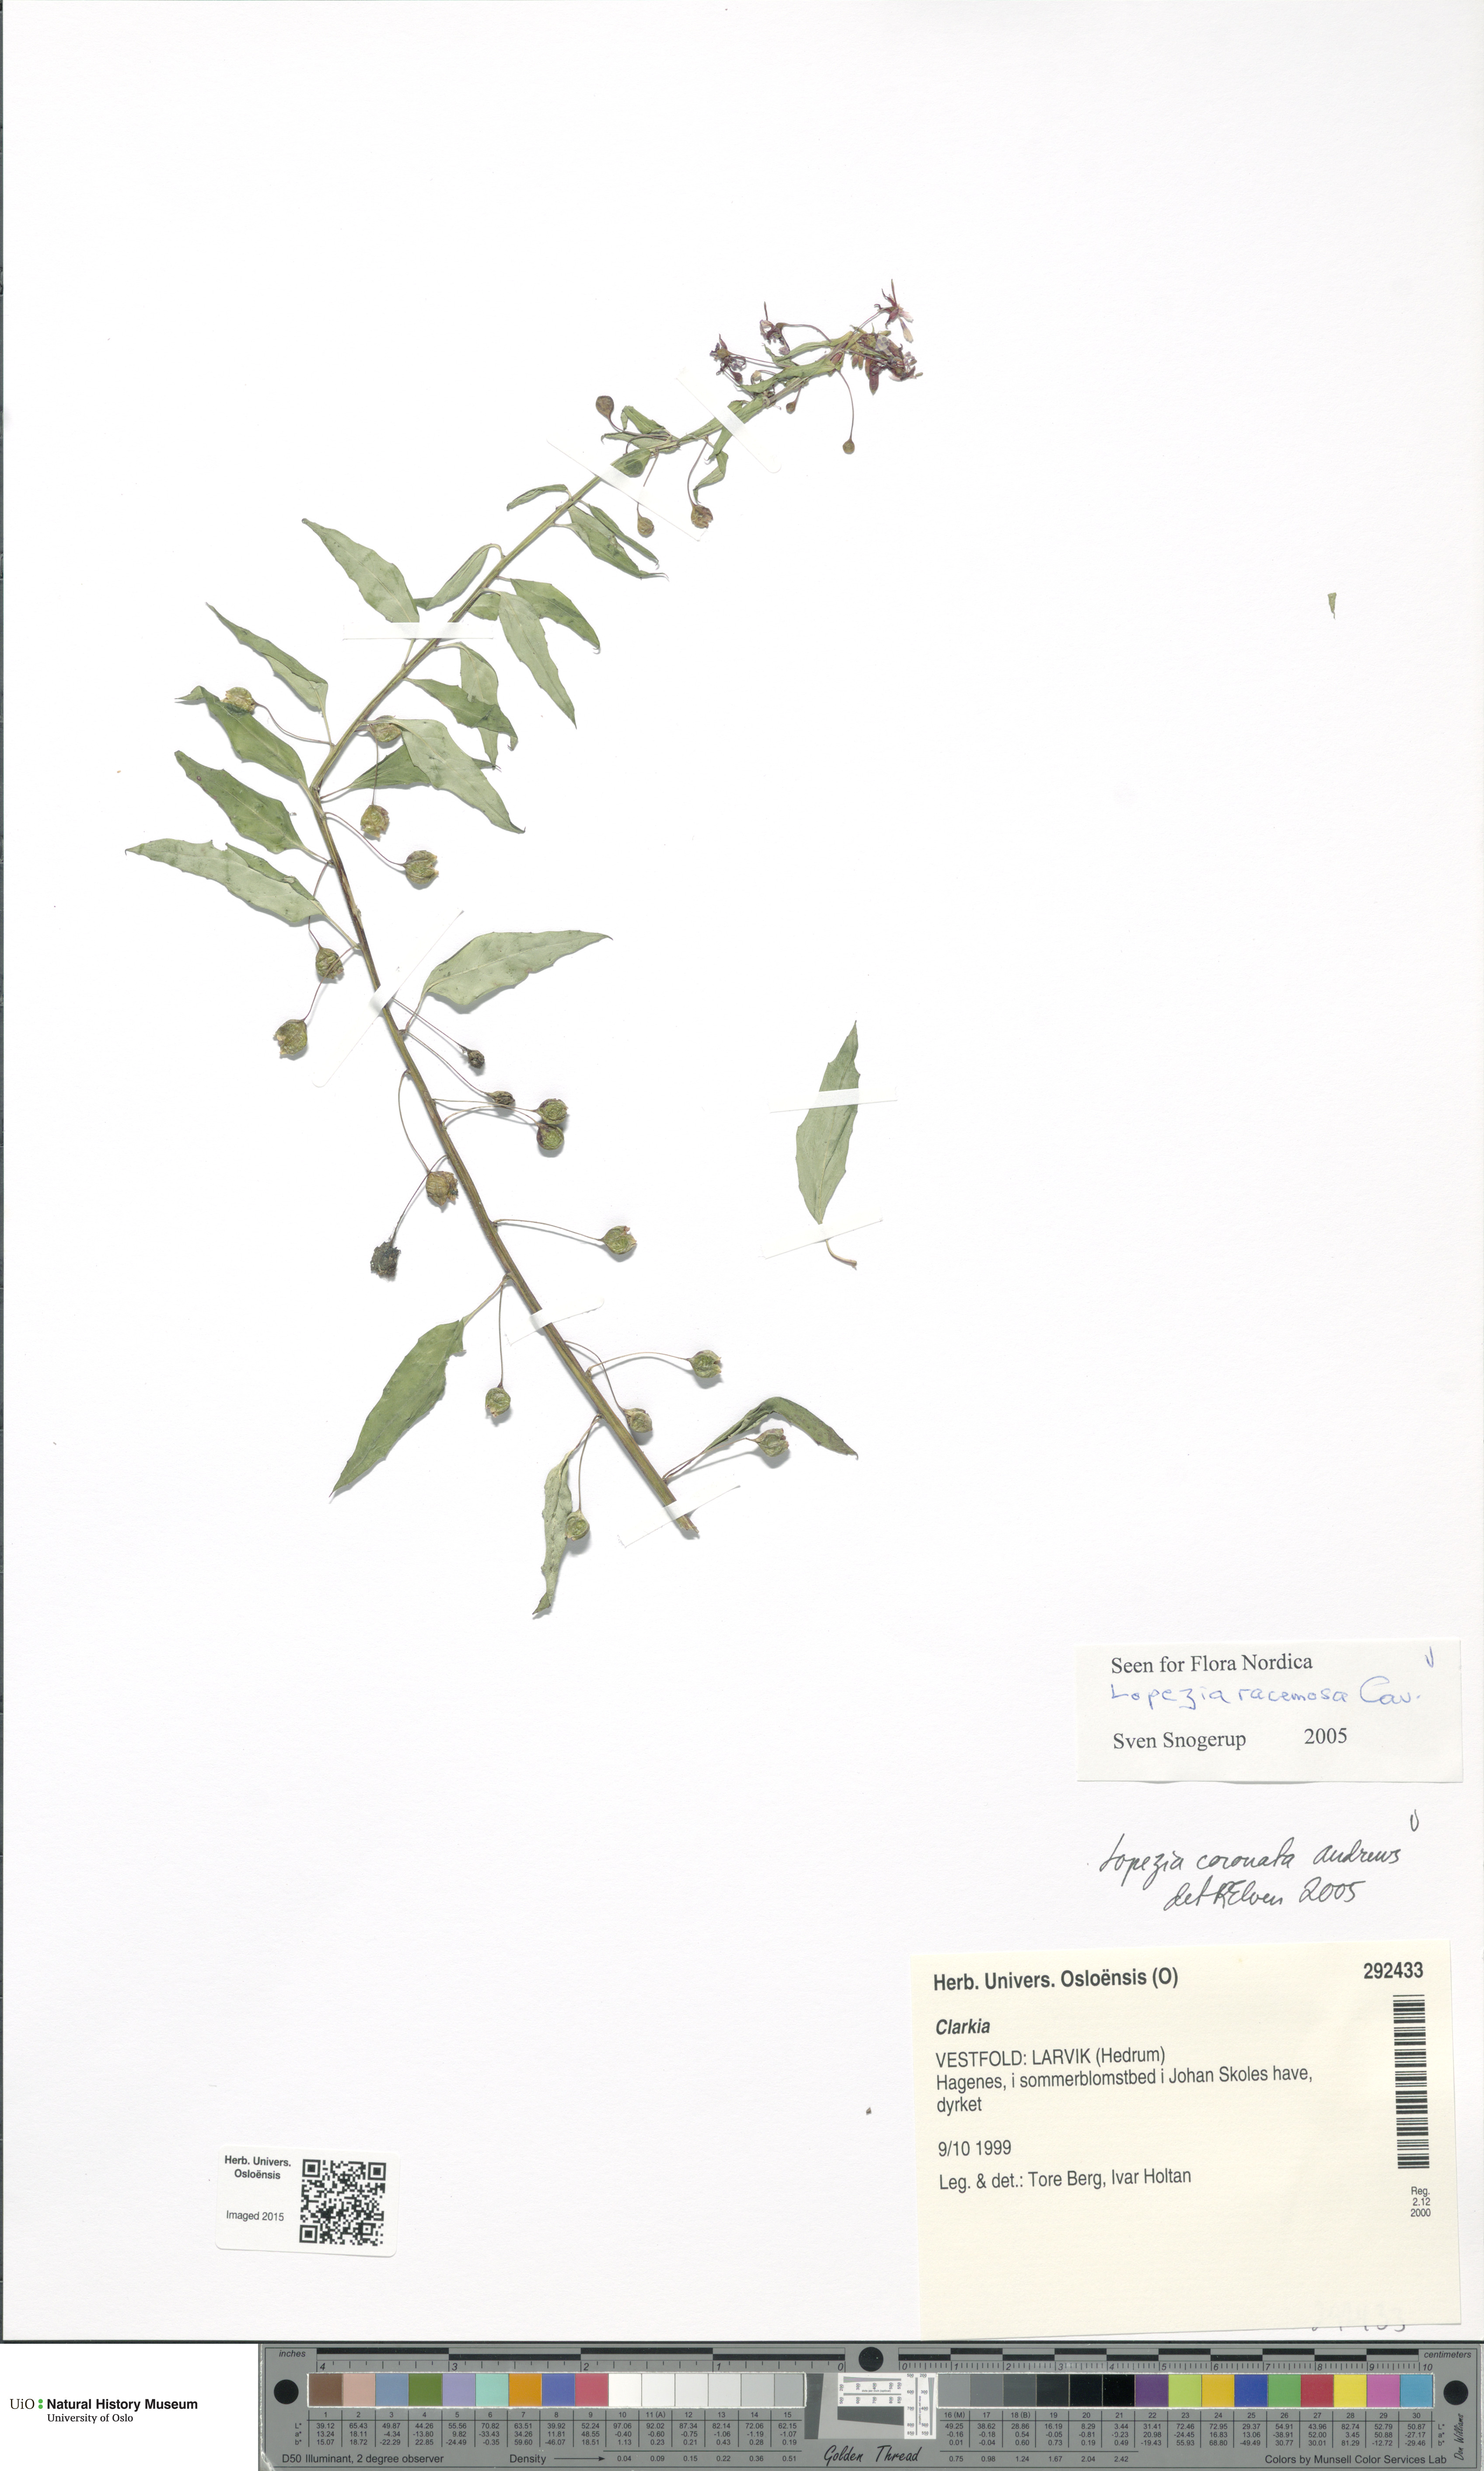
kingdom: Plantae
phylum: Tracheophyta
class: Magnoliopsida
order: Myrtales
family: Onagraceae
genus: Lopezia
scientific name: Lopezia racemosa
